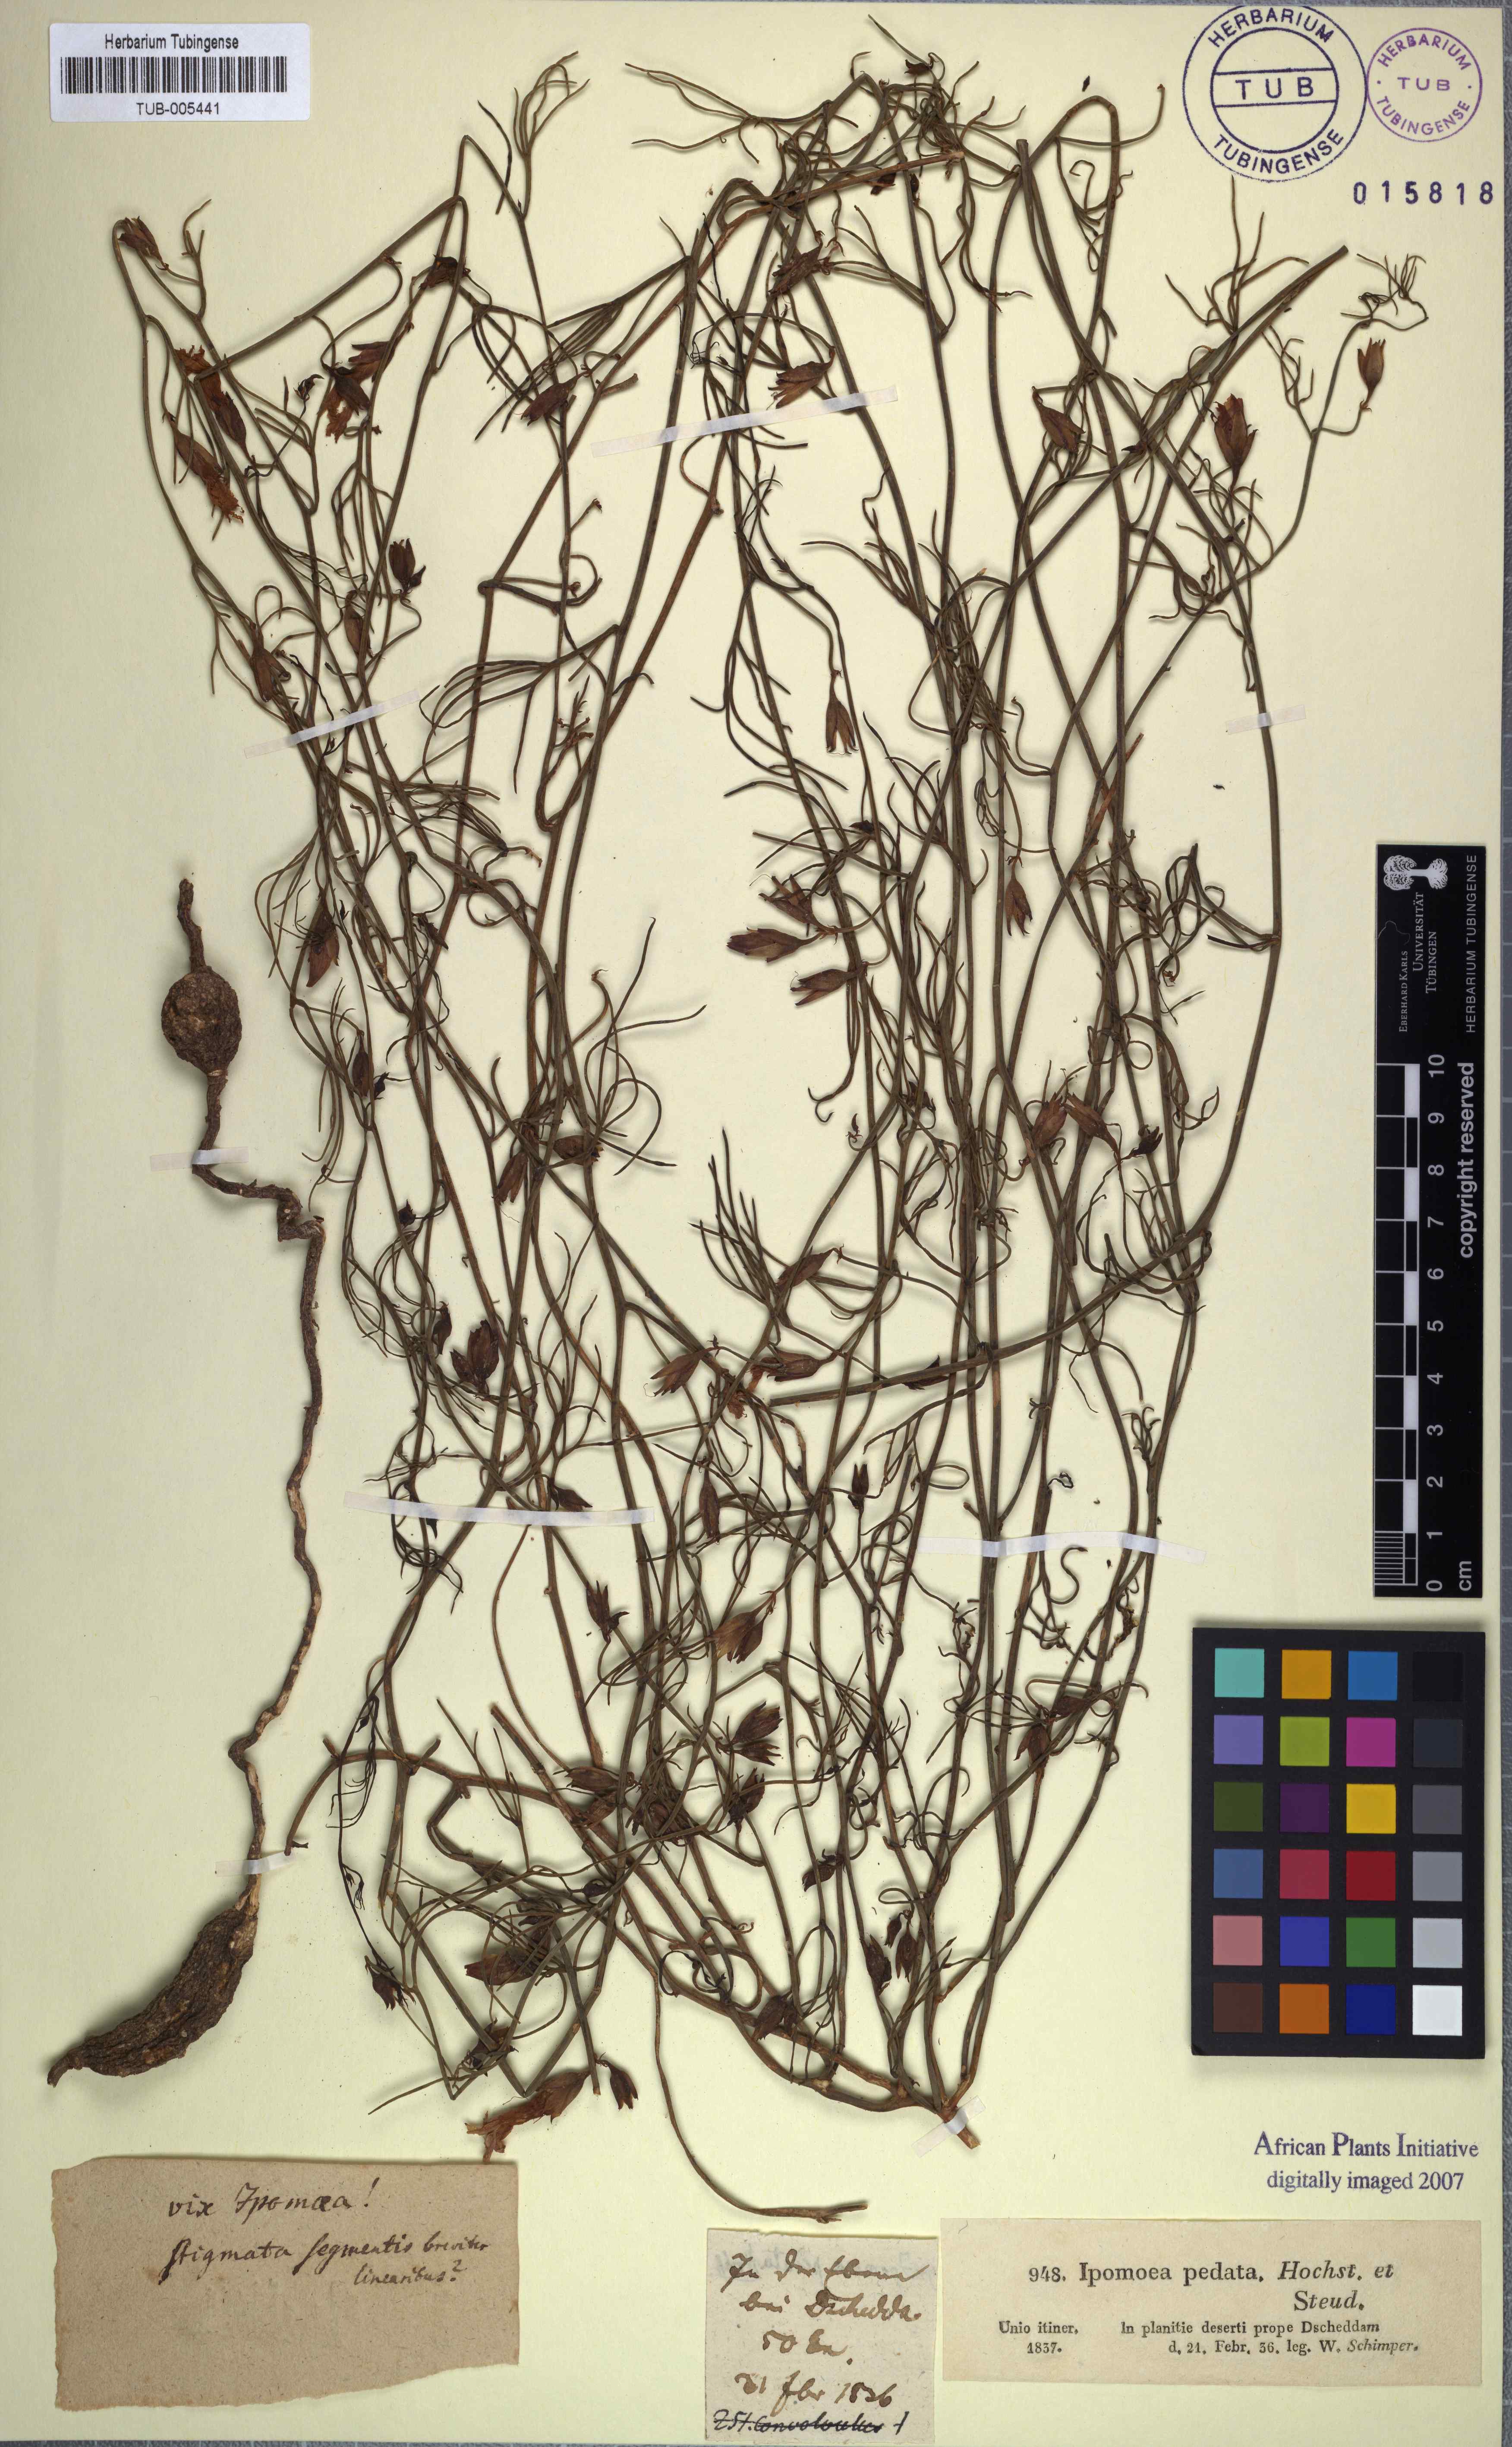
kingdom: Plantae
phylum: Tracheophyta
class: Magnoliopsida
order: Solanales
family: Convolvulaceae
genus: Distimake
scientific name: Distimake semisagittus
